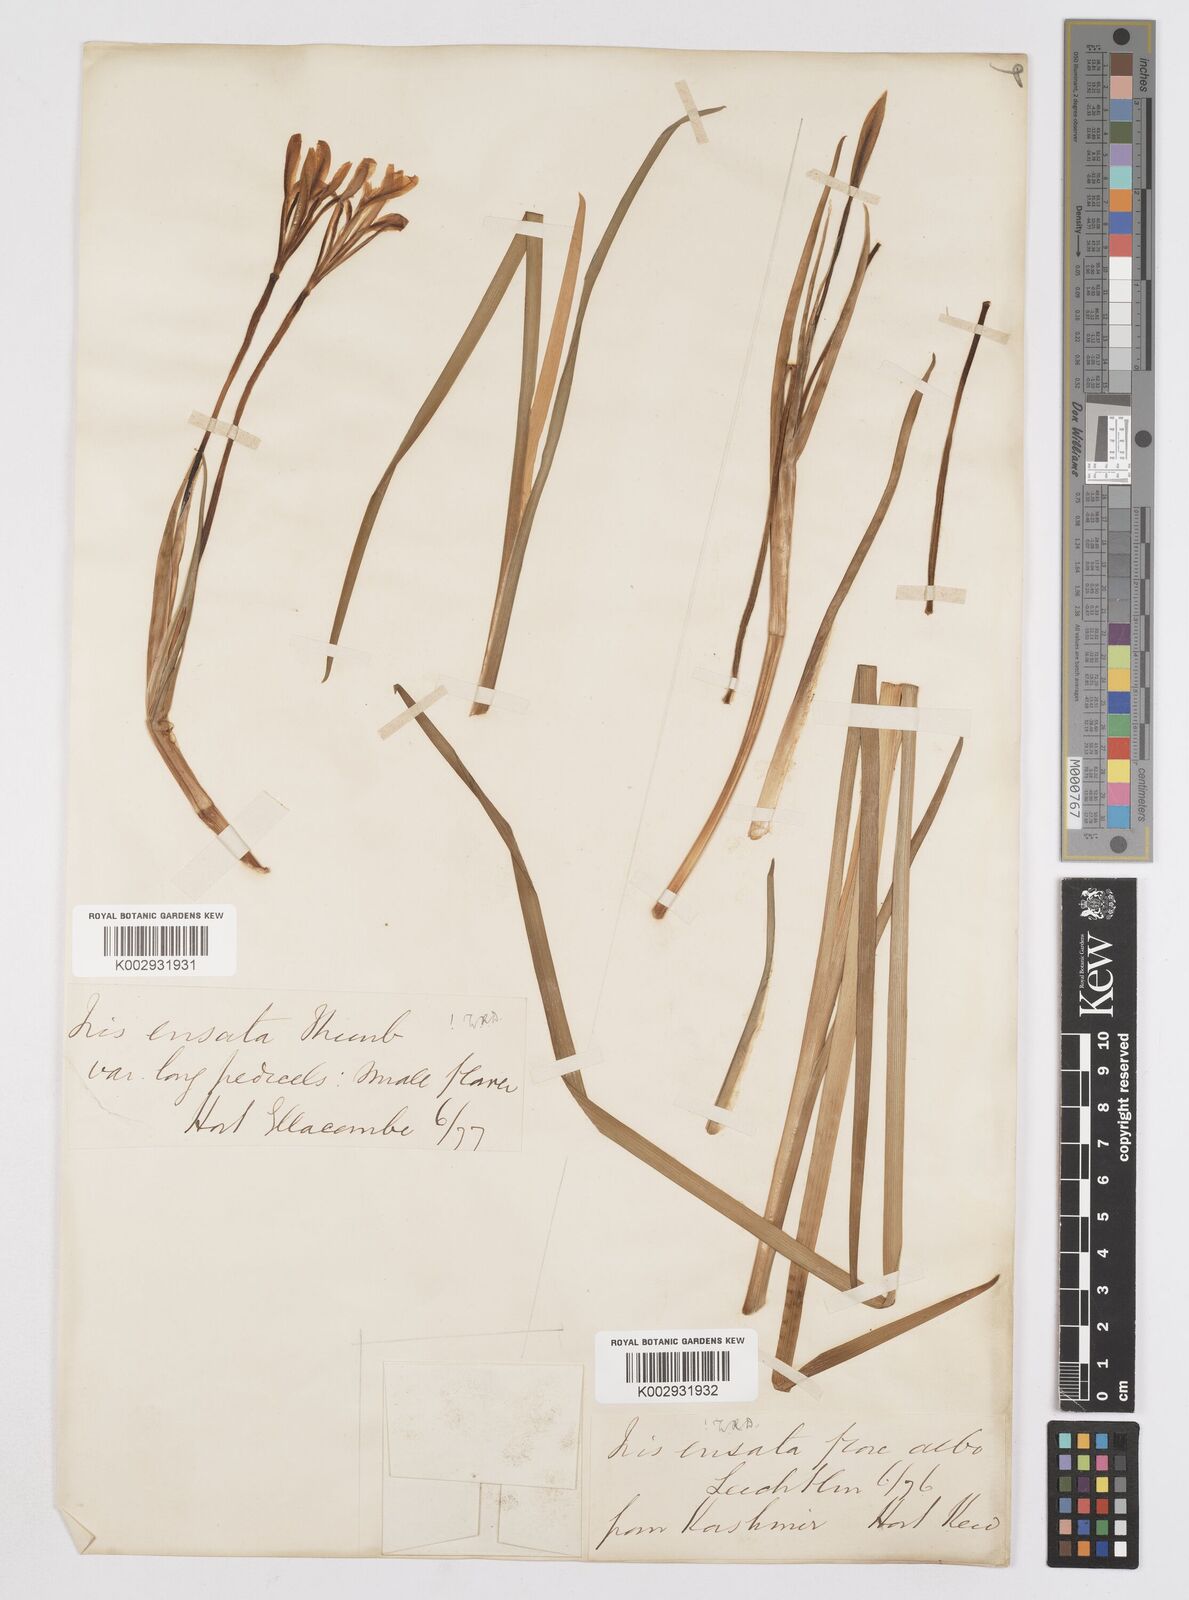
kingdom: Plantae
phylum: Tracheophyta
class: Liliopsida
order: Asparagales
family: Iridaceae
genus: Iris
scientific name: Iris ensata
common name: Beaked iris
